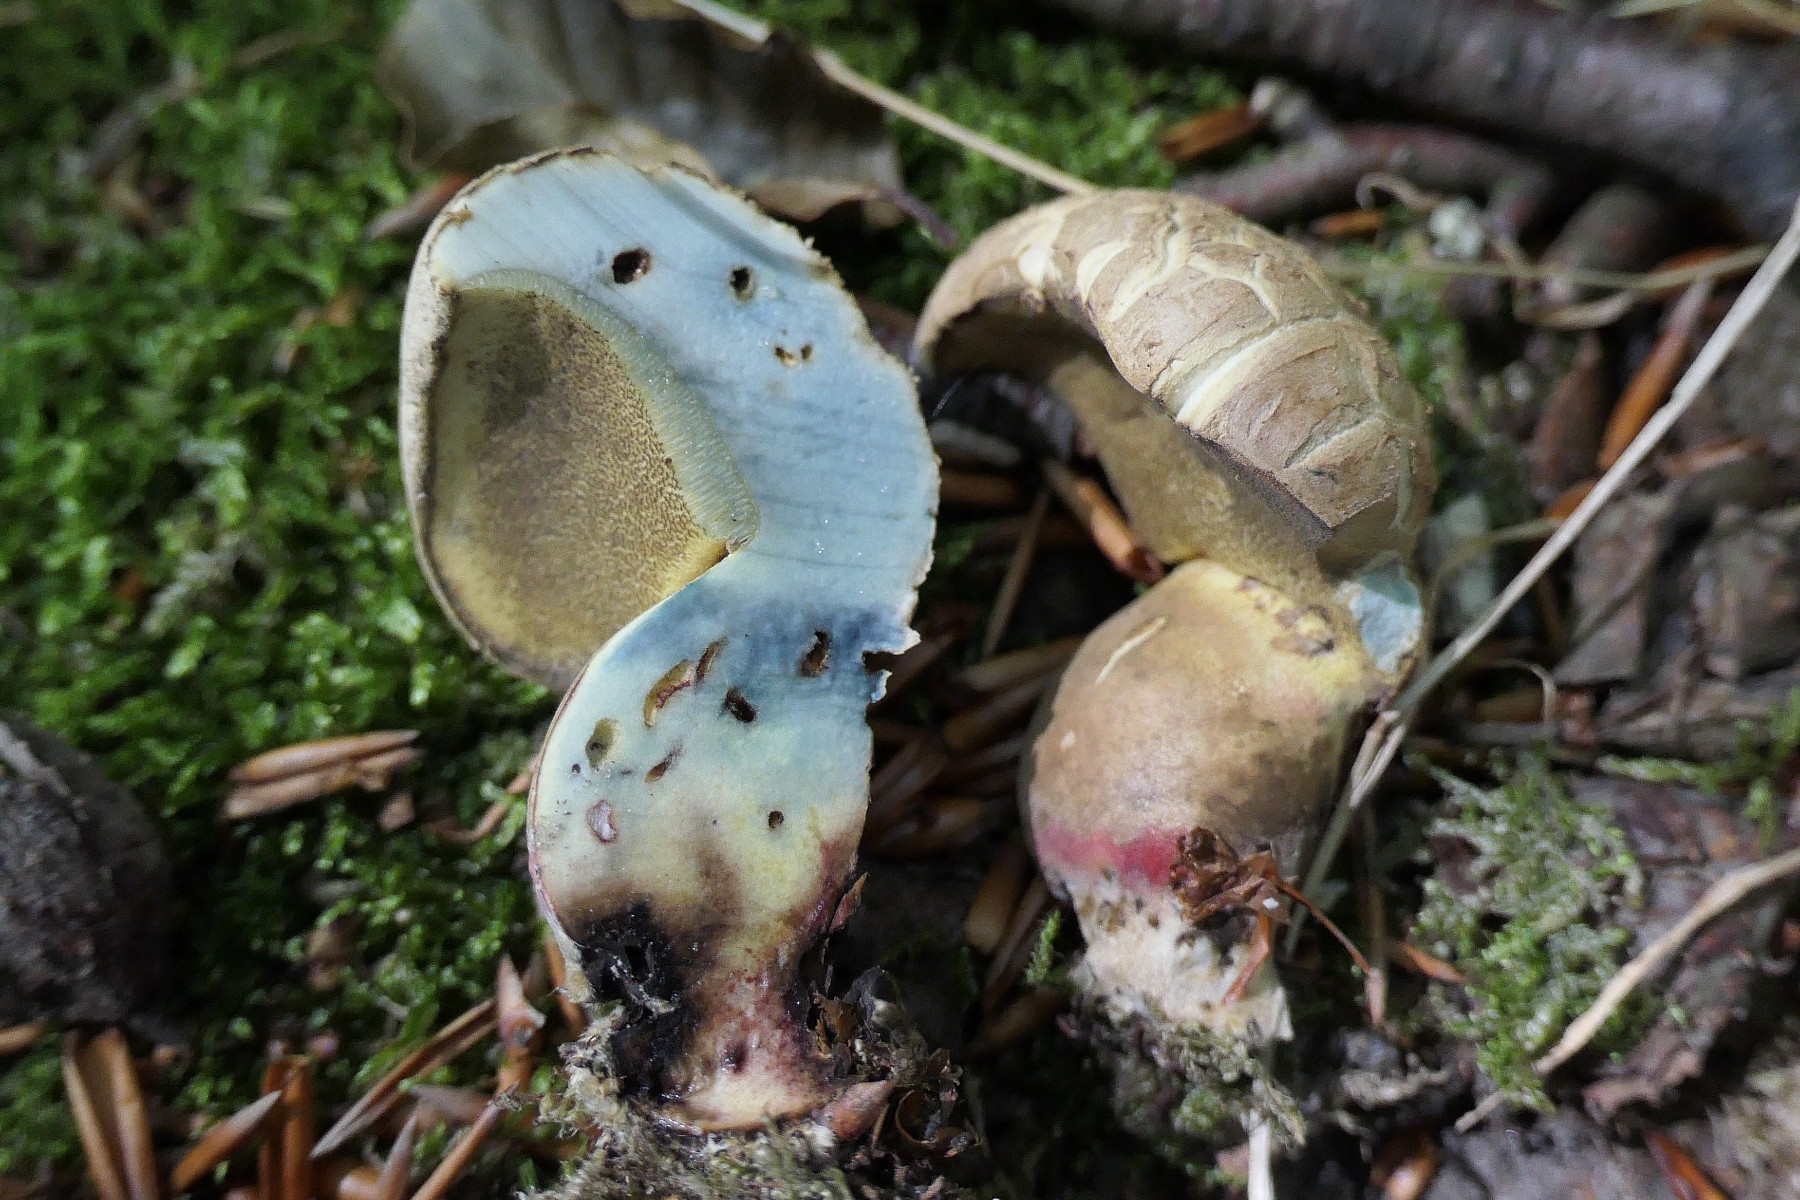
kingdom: Fungi
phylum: Basidiomycota
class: Agaricomycetes
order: Boletales
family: Boletaceae
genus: Caloboletus
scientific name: Caloboletus calopus
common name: skønfodet rørhat
